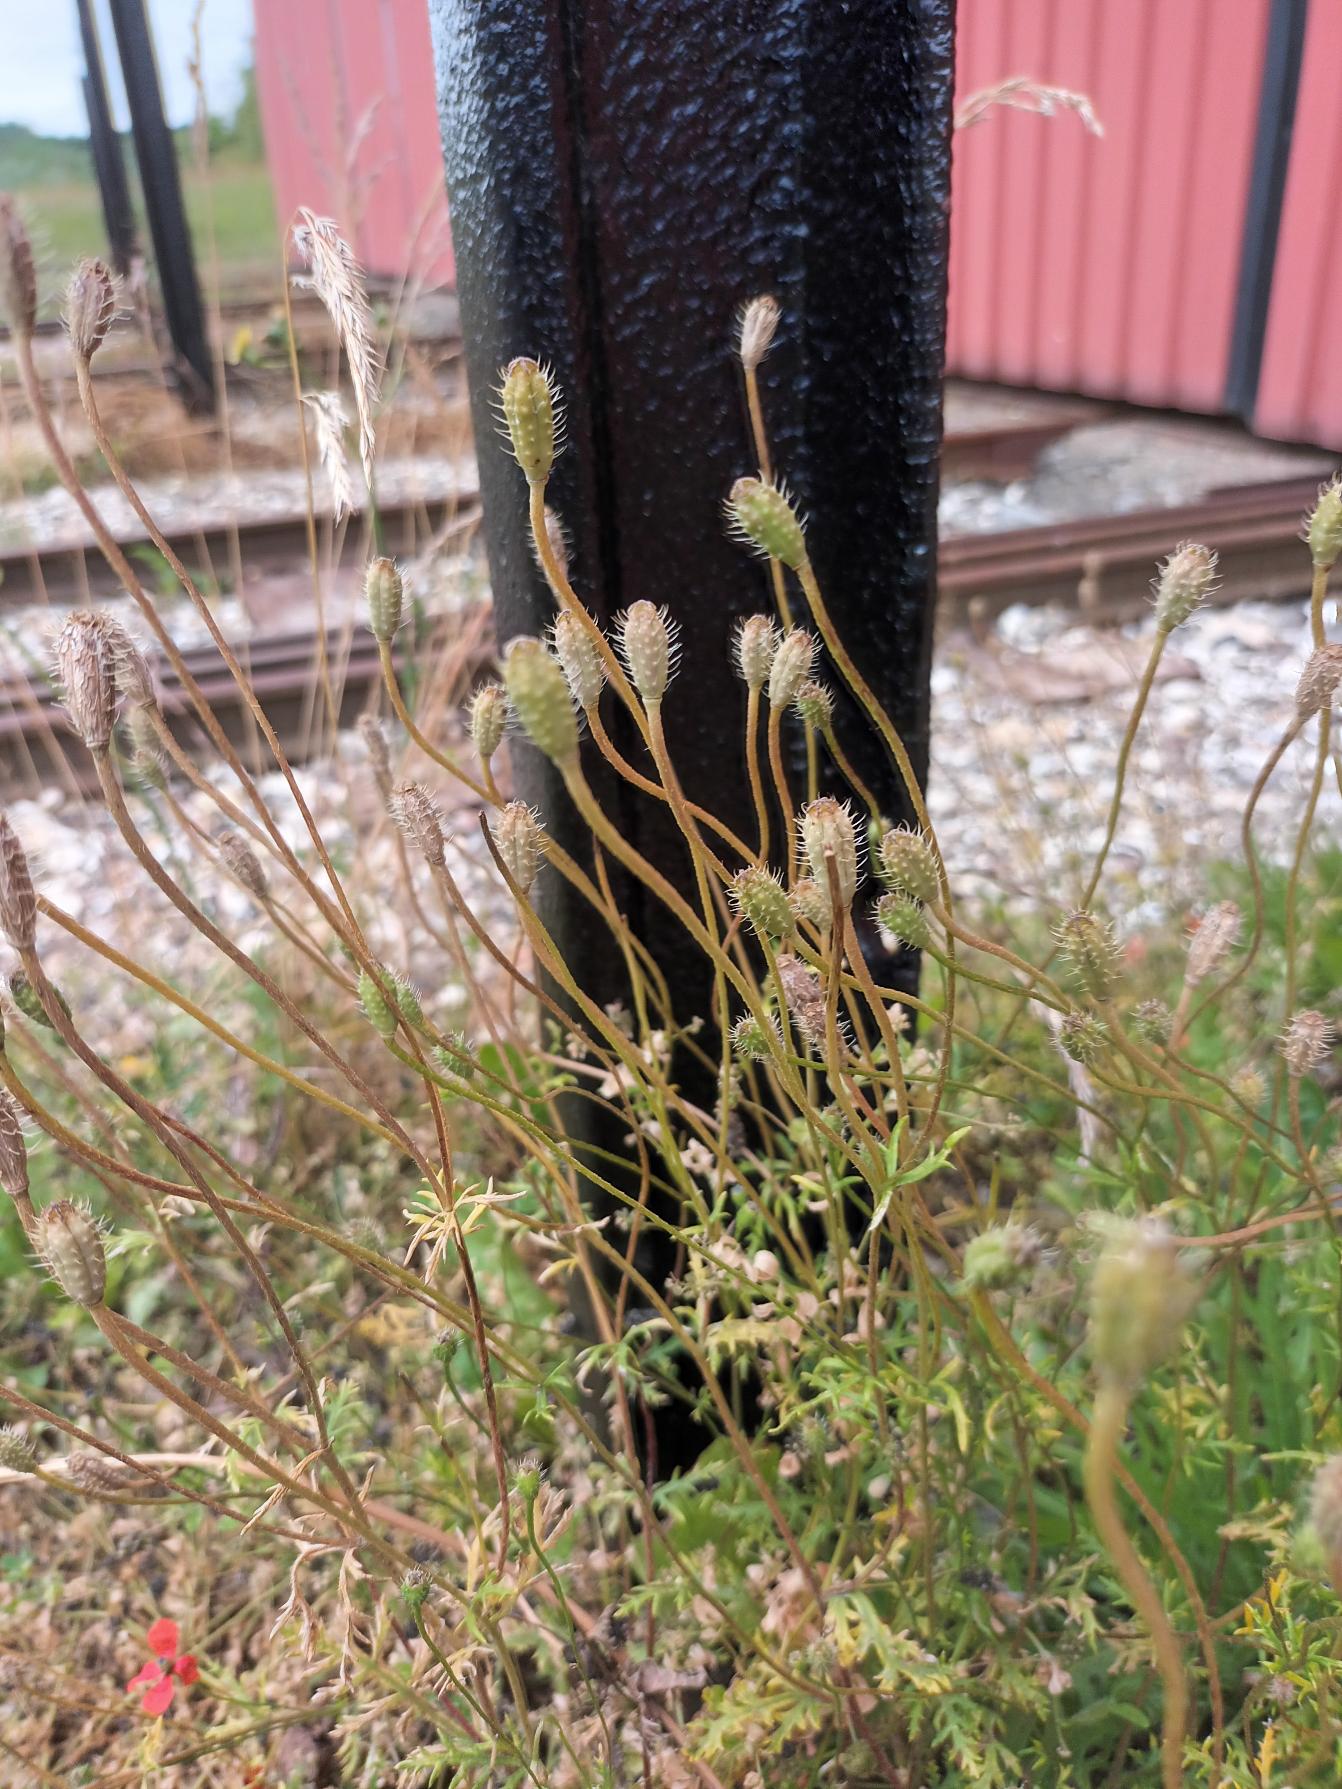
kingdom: Plantae
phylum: Tracheophyta
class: Magnoliopsida
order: Ranunculales
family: Papaveraceae
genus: Roemeria
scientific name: Roemeria argemone
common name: Kølle-valmue
